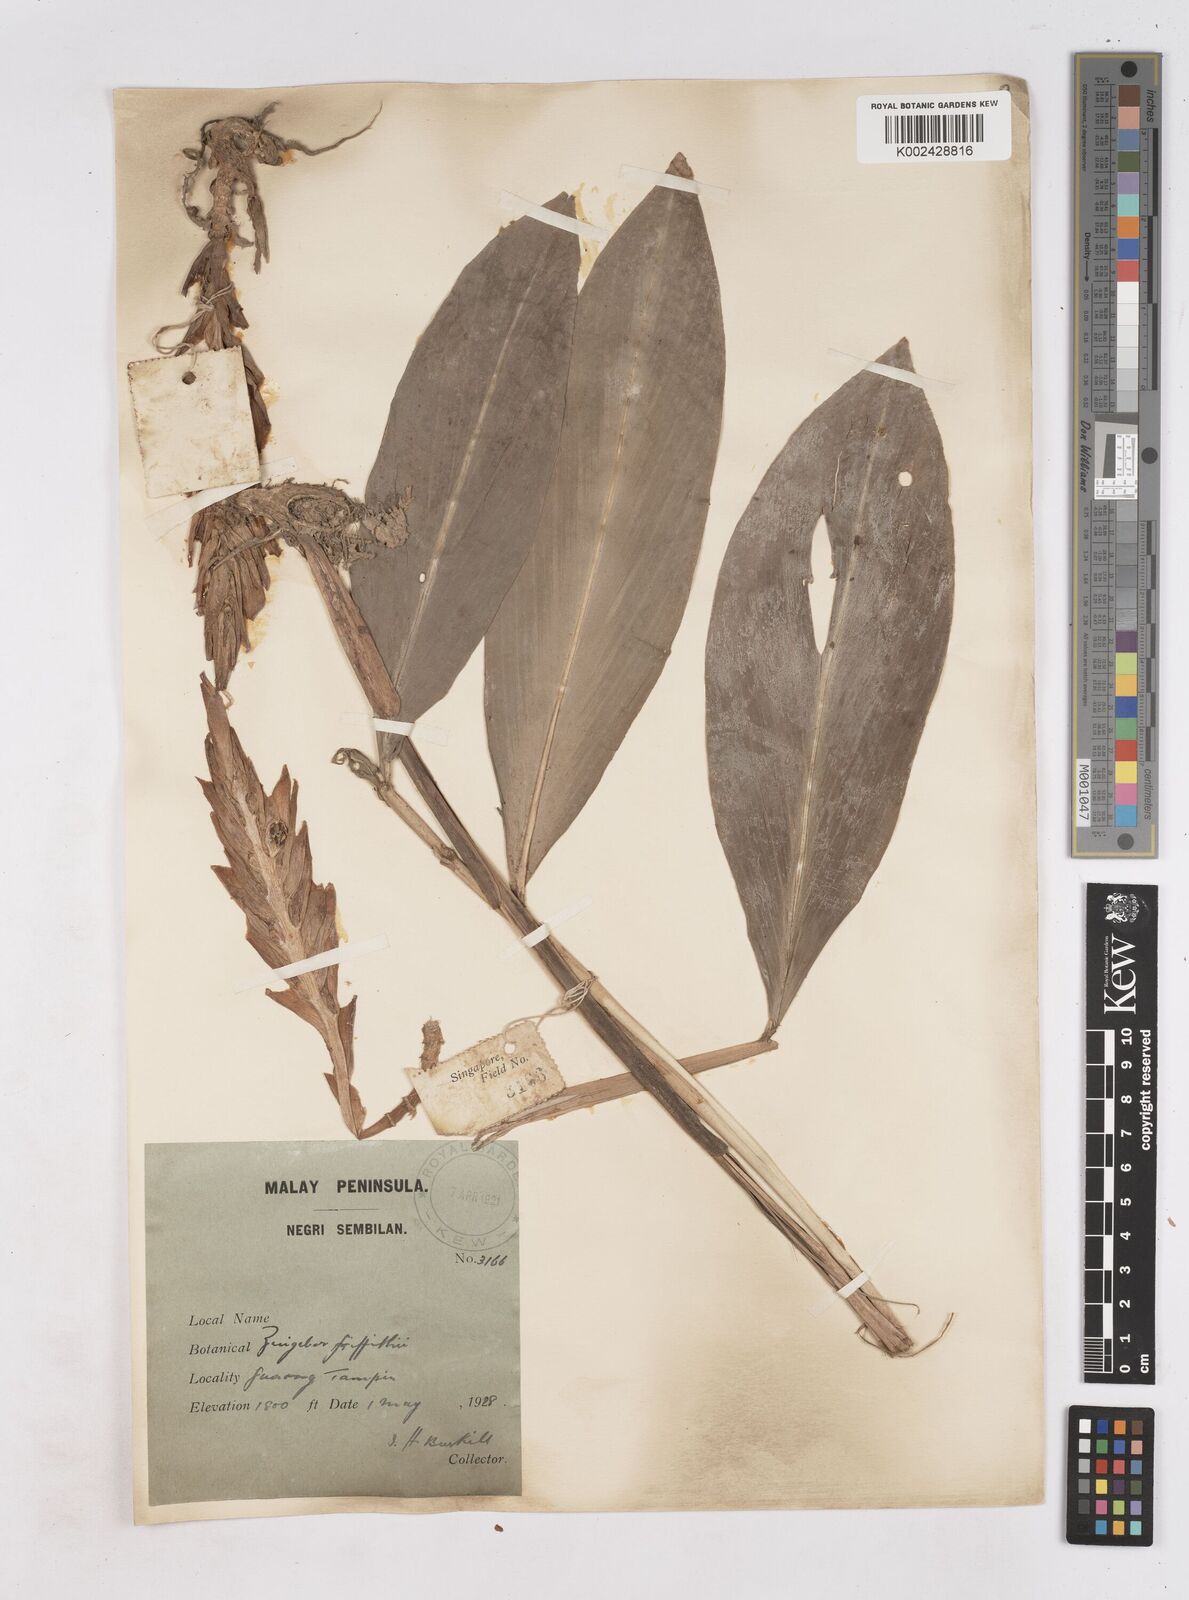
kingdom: Plantae
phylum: Tracheophyta
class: Liliopsida
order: Zingiberales
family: Zingiberaceae
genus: Zingiber
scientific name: Zingiber griffithii
